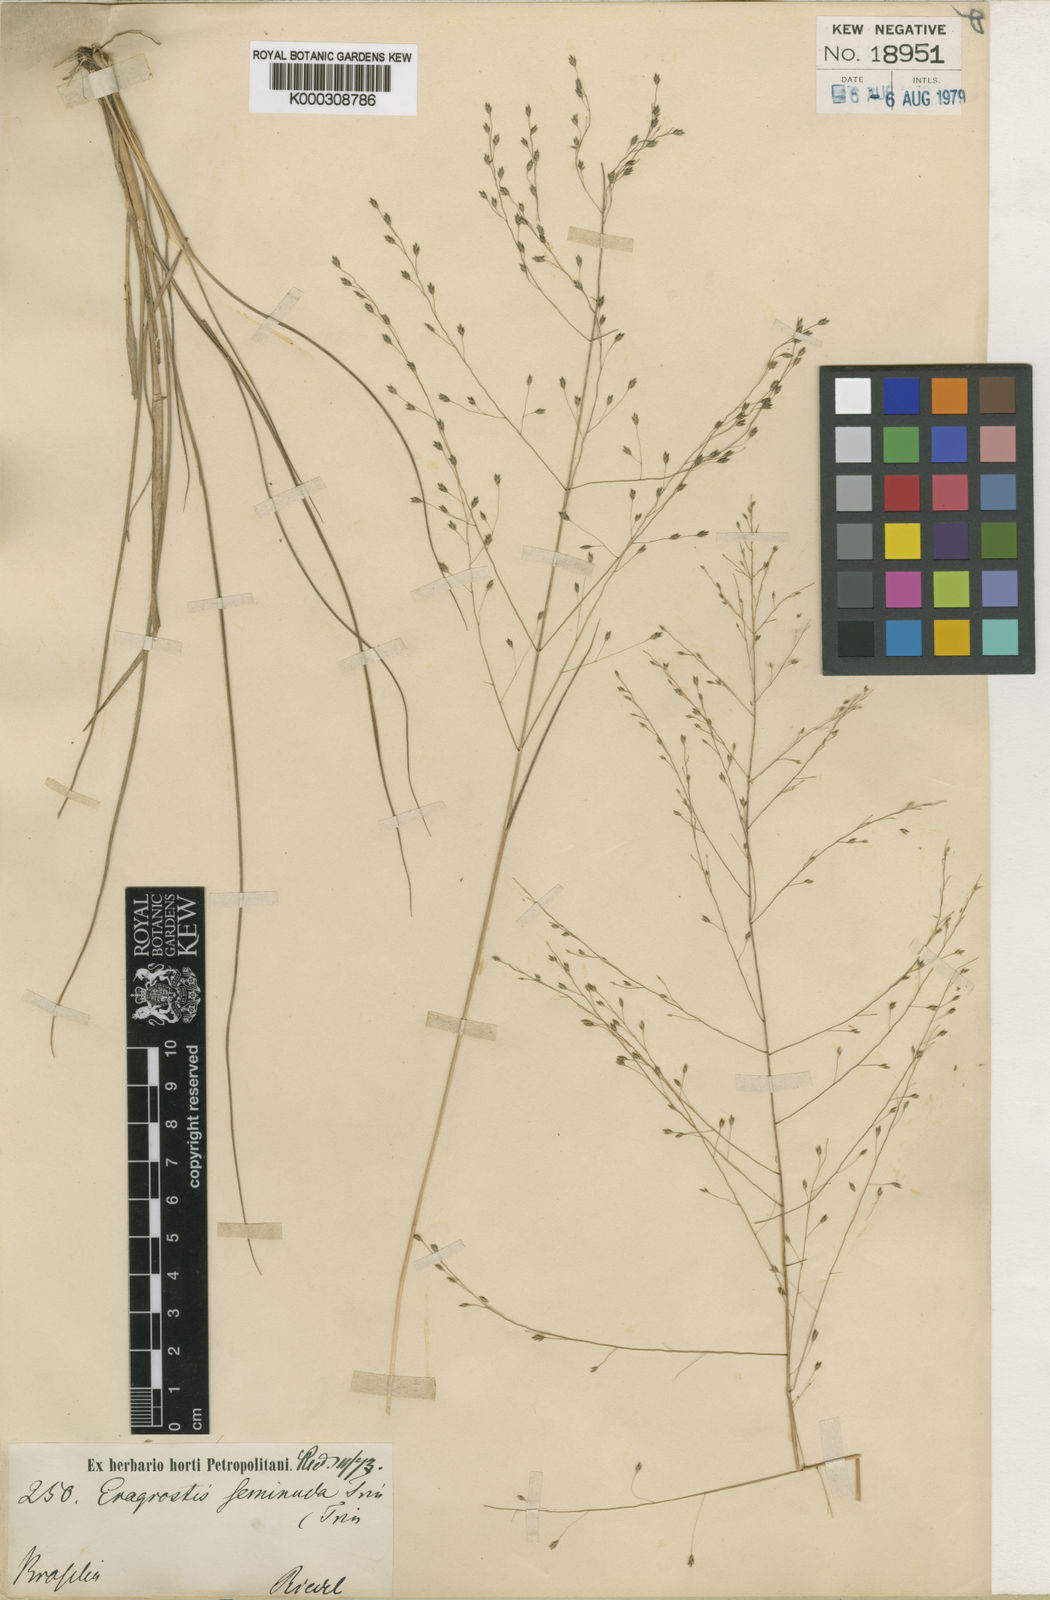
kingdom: Plantae
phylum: Tracheophyta
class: Liliopsida
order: Poales
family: Poaceae
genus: Eragrostis
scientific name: Eragrostis seminuda
